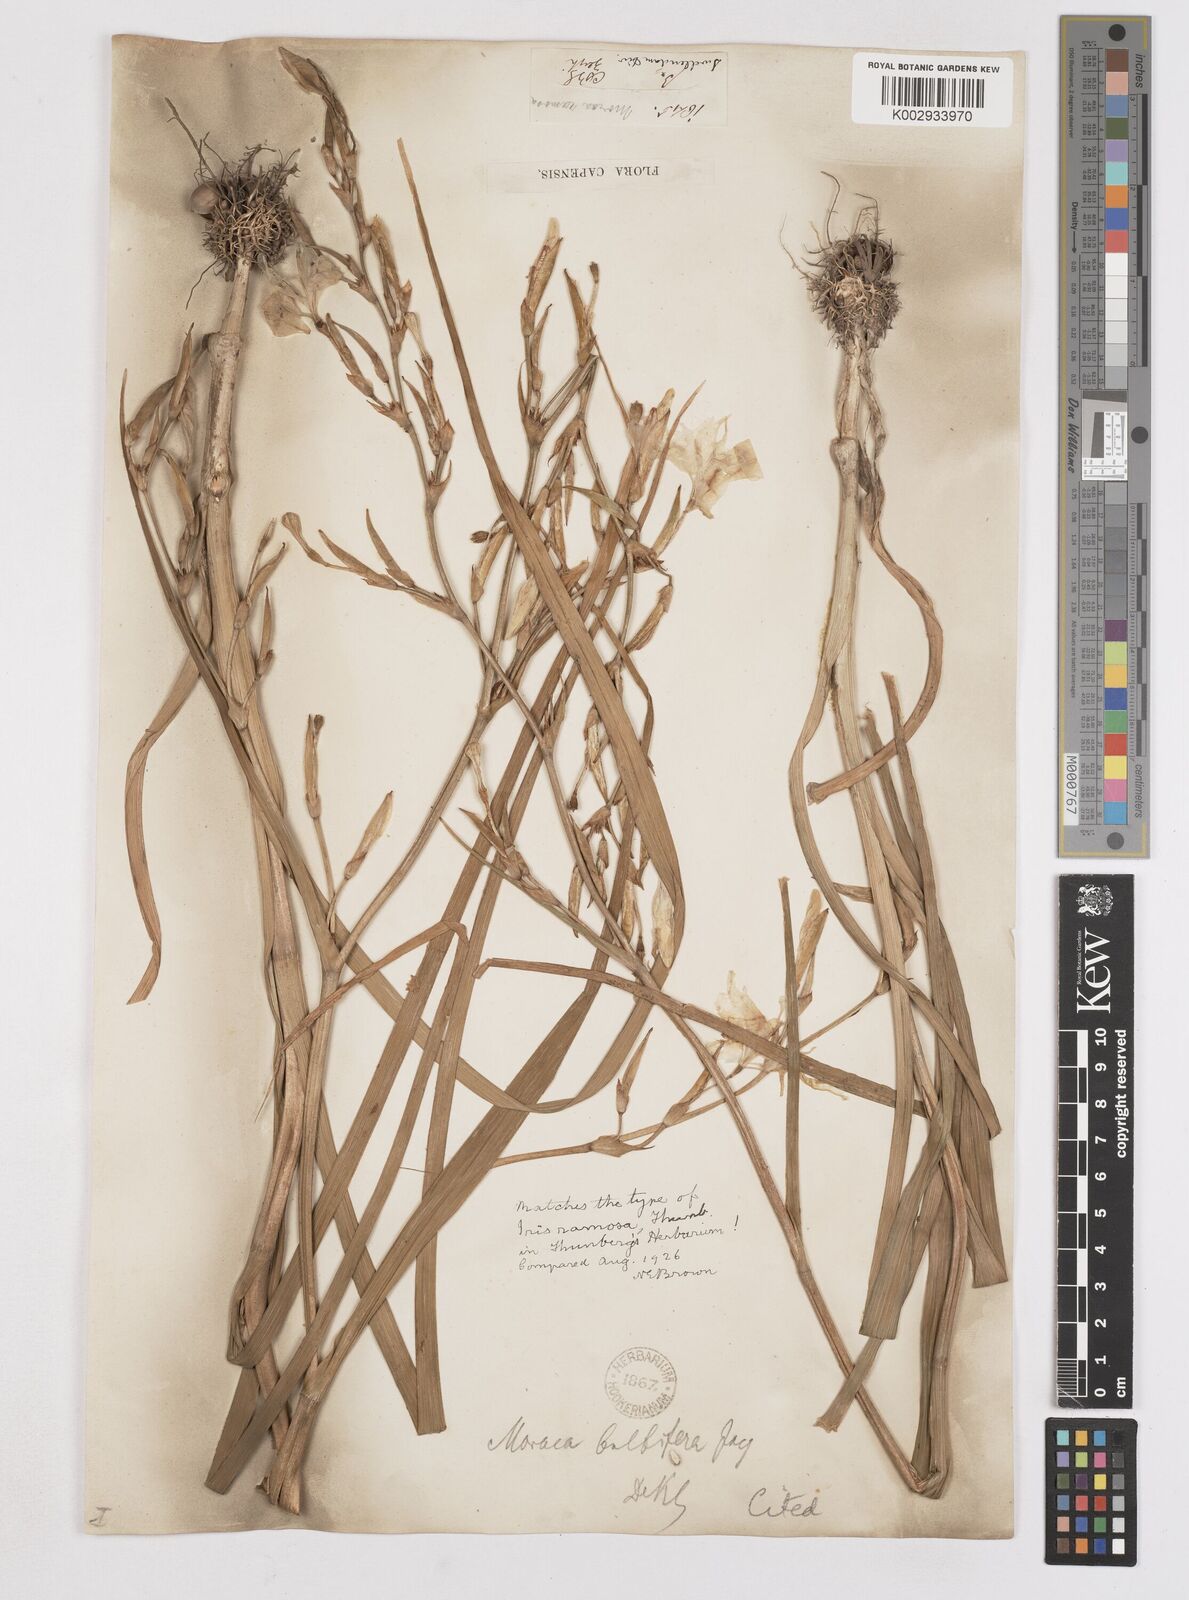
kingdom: Plantae
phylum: Tracheophyta
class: Liliopsida
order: Asparagales
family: Iridaceae
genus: Moraea
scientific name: Moraea ramosissima
